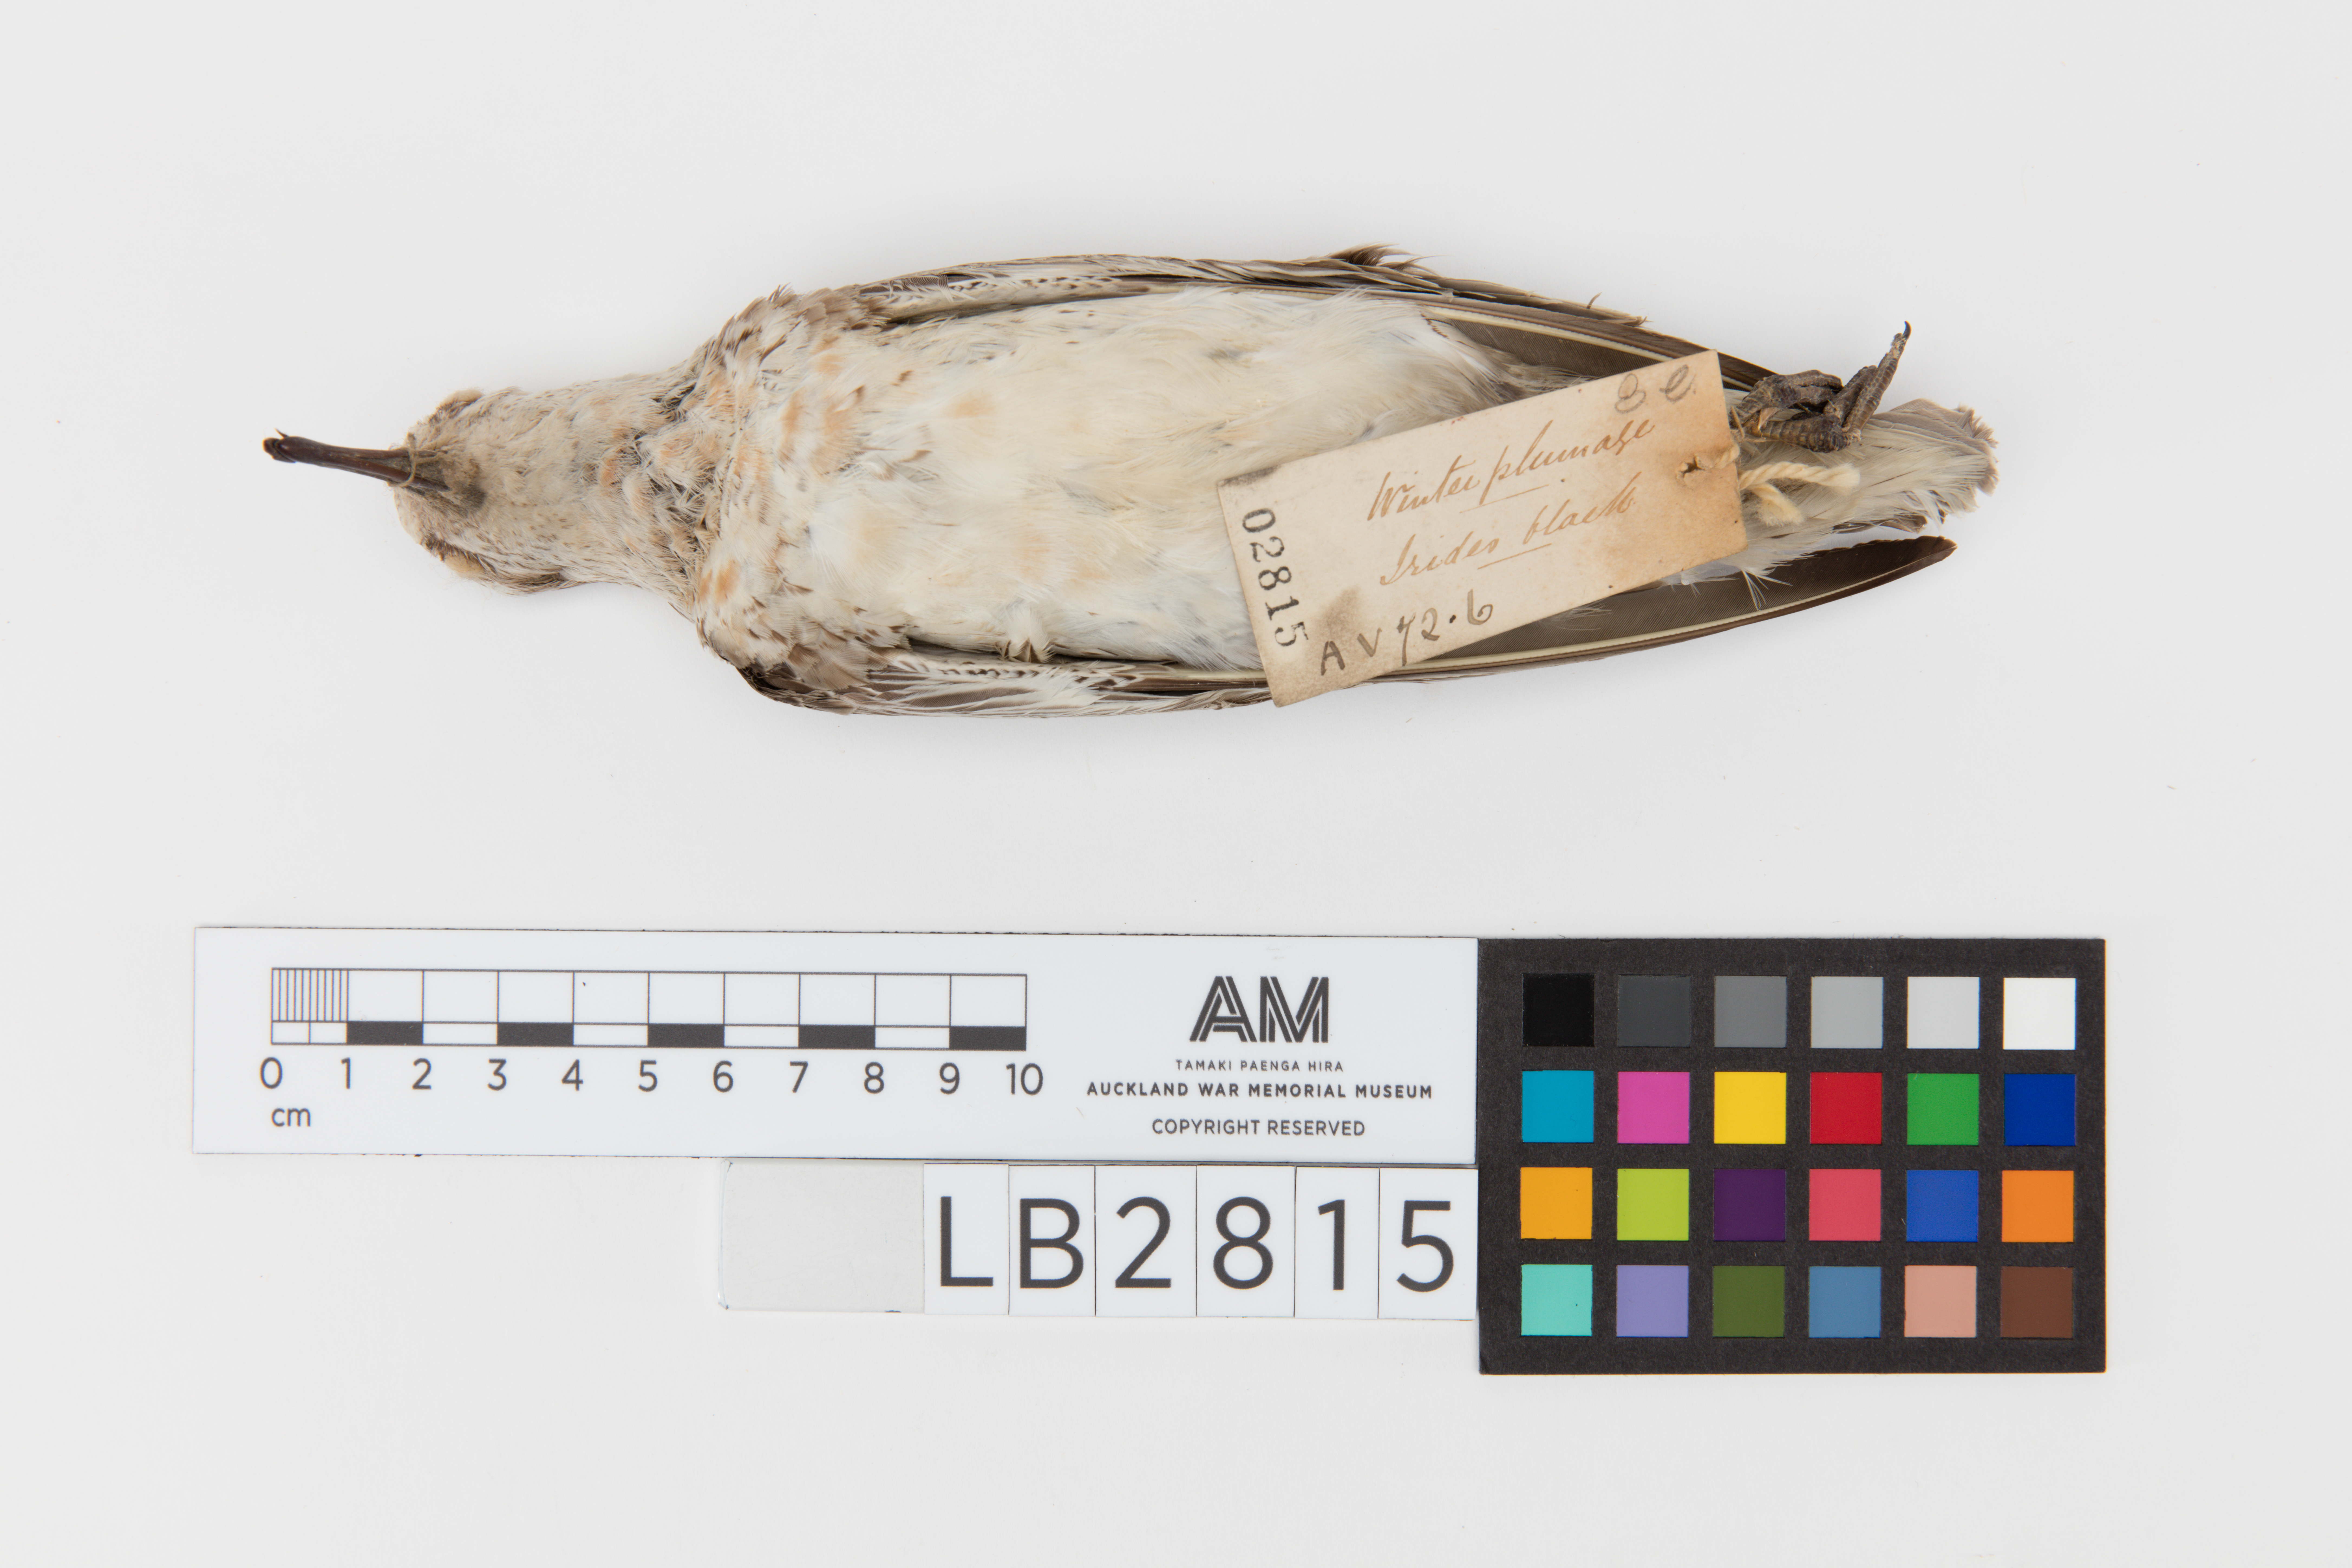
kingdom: Animalia
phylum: Chordata
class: Aves
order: Charadriiformes
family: Scolopacidae
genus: Calidris
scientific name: Calidris canutus
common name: Red knot
